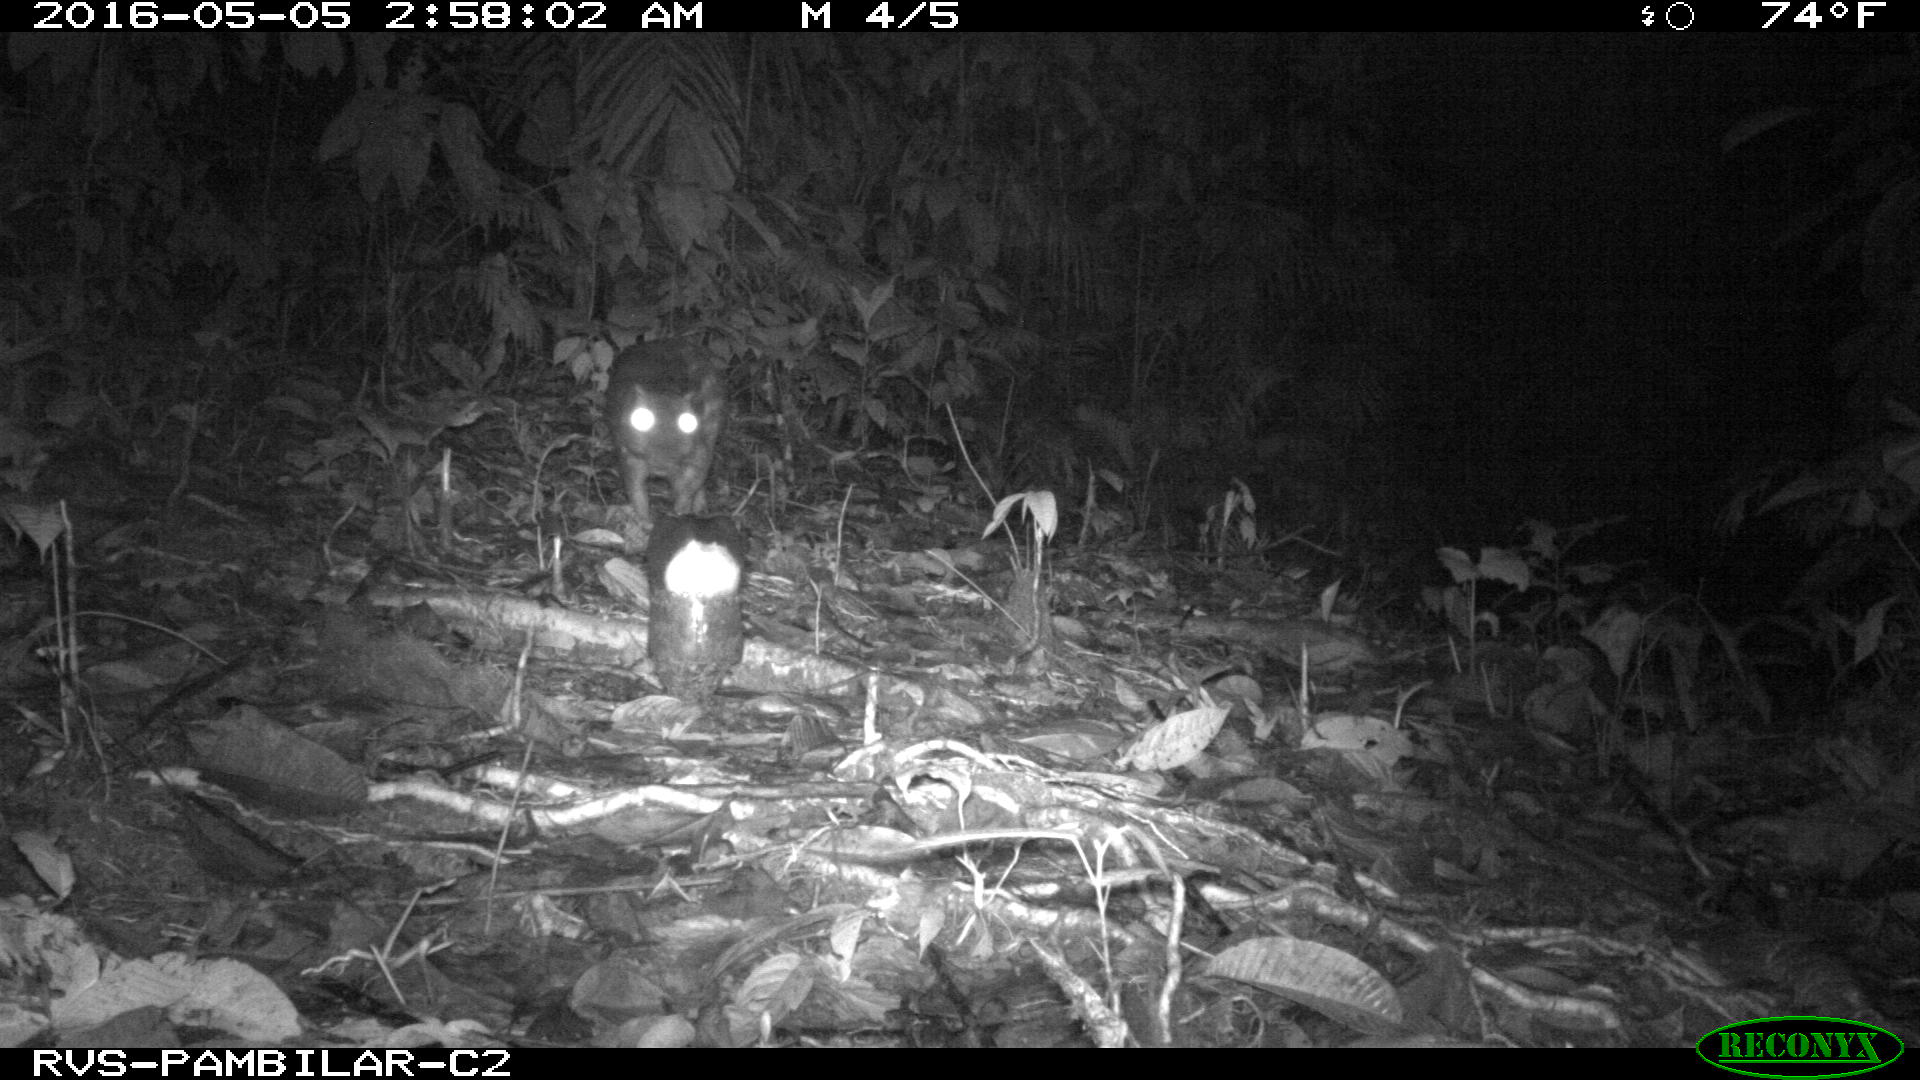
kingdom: Animalia
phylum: Chordata
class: Mammalia
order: Rodentia
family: Cuniculidae
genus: Cuniculus
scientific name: Cuniculus paca
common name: Lowland paca
